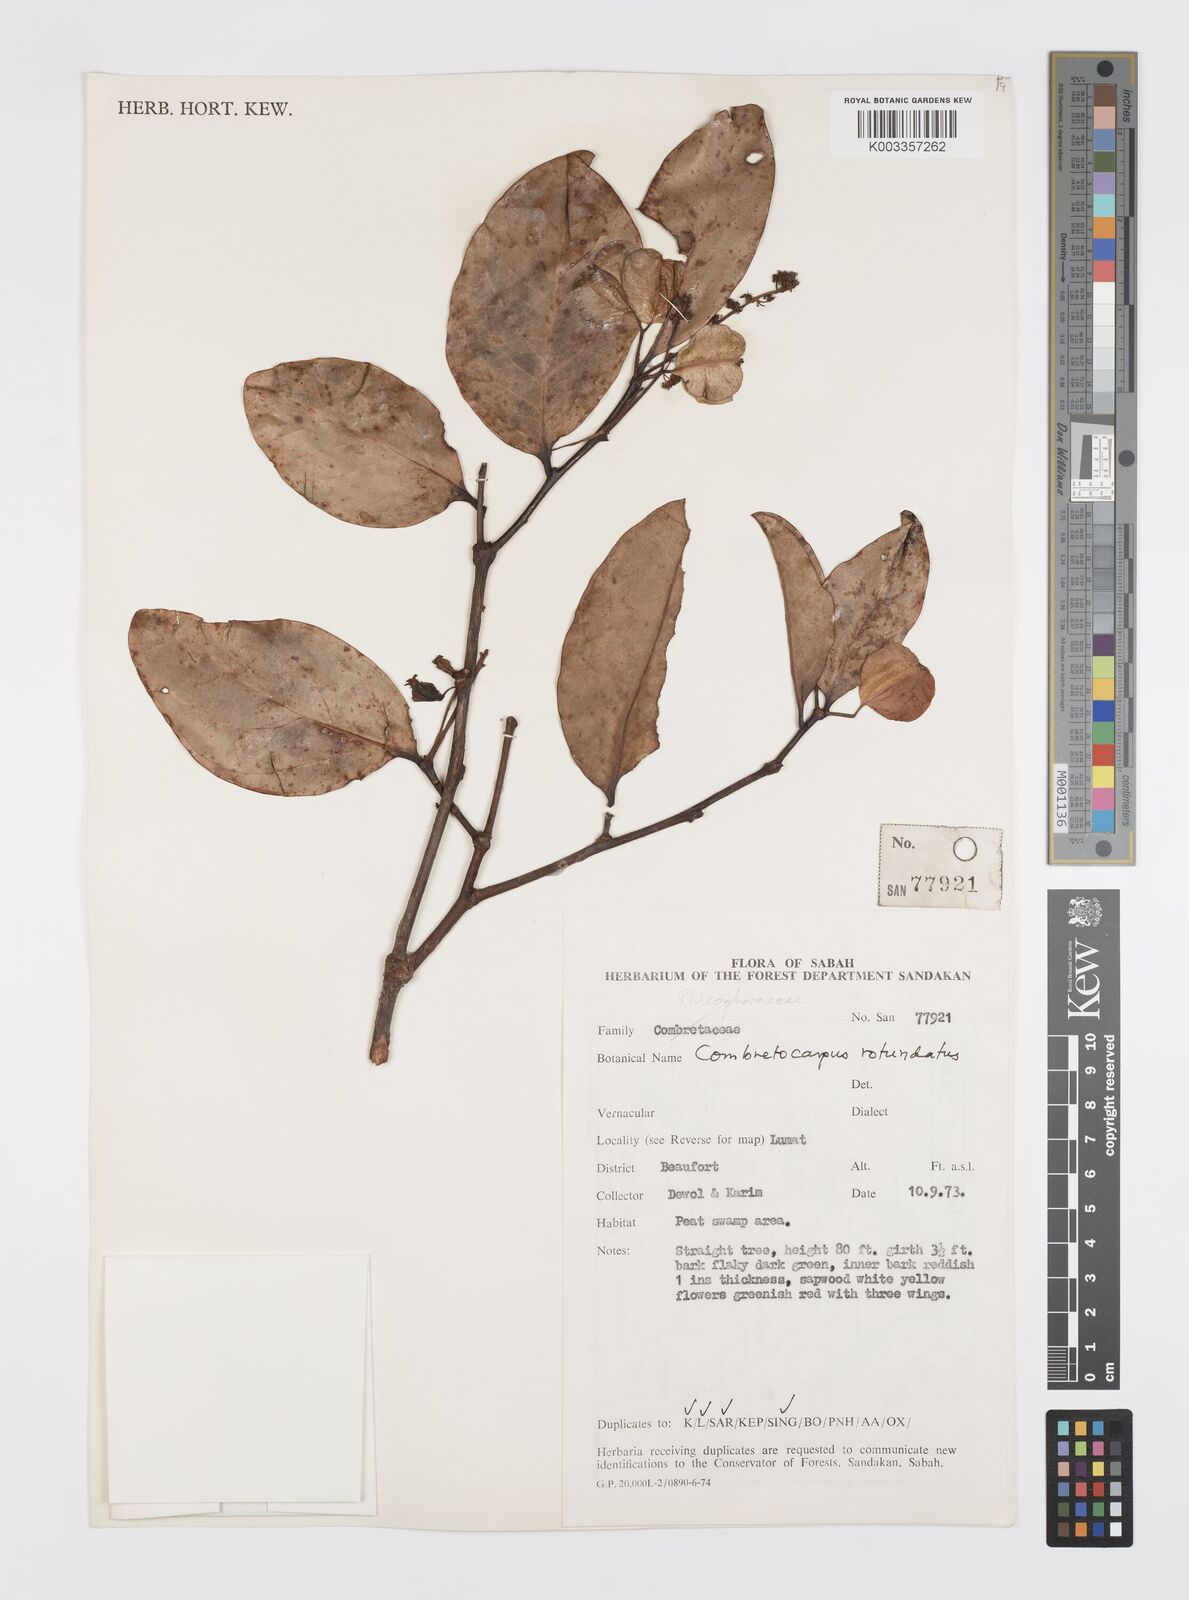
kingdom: Plantae
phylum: Tracheophyta
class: Magnoliopsida
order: Cucurbitales
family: Anisophylleaceae
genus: Combretocarpus
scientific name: Combretocarpus rotundatus
